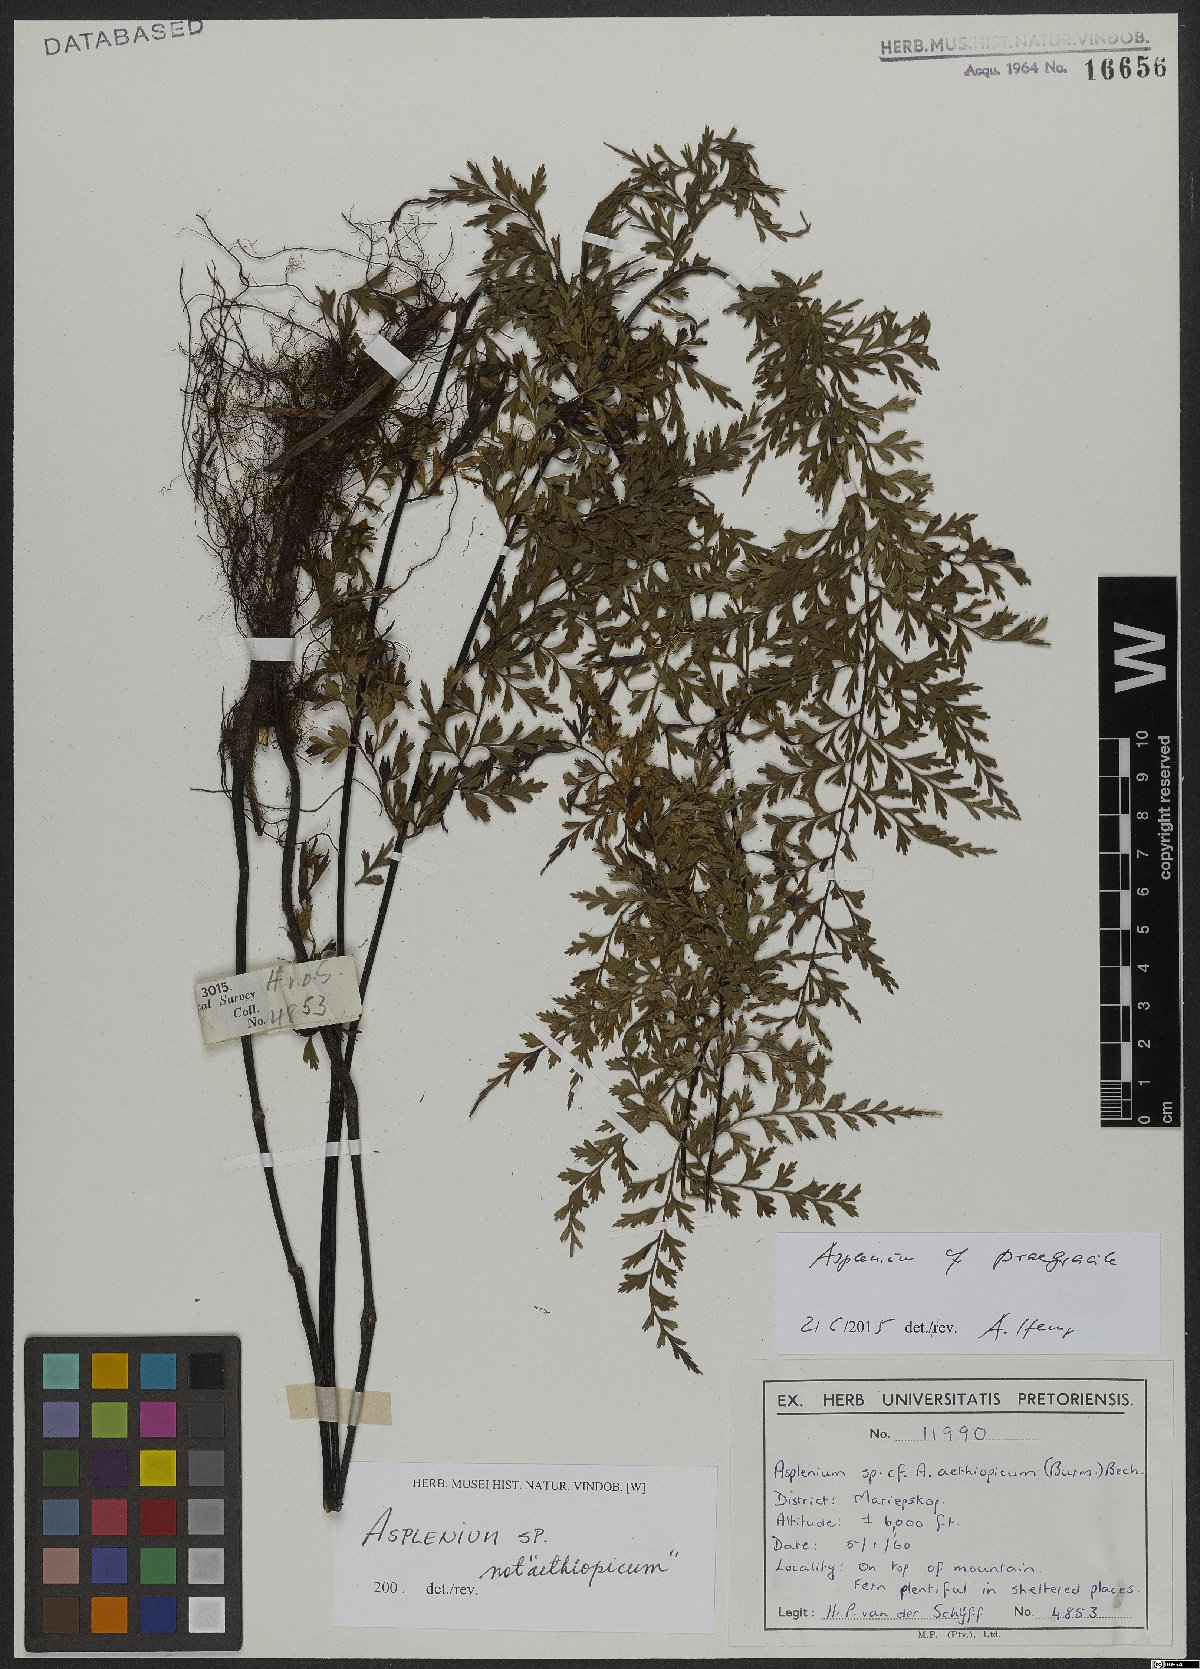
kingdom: Plantae
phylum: Tracheophyta
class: Polypodiopsida
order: Polypodiales
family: Aspleniaceae
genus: Asplenium
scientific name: Asplenium praegracile
